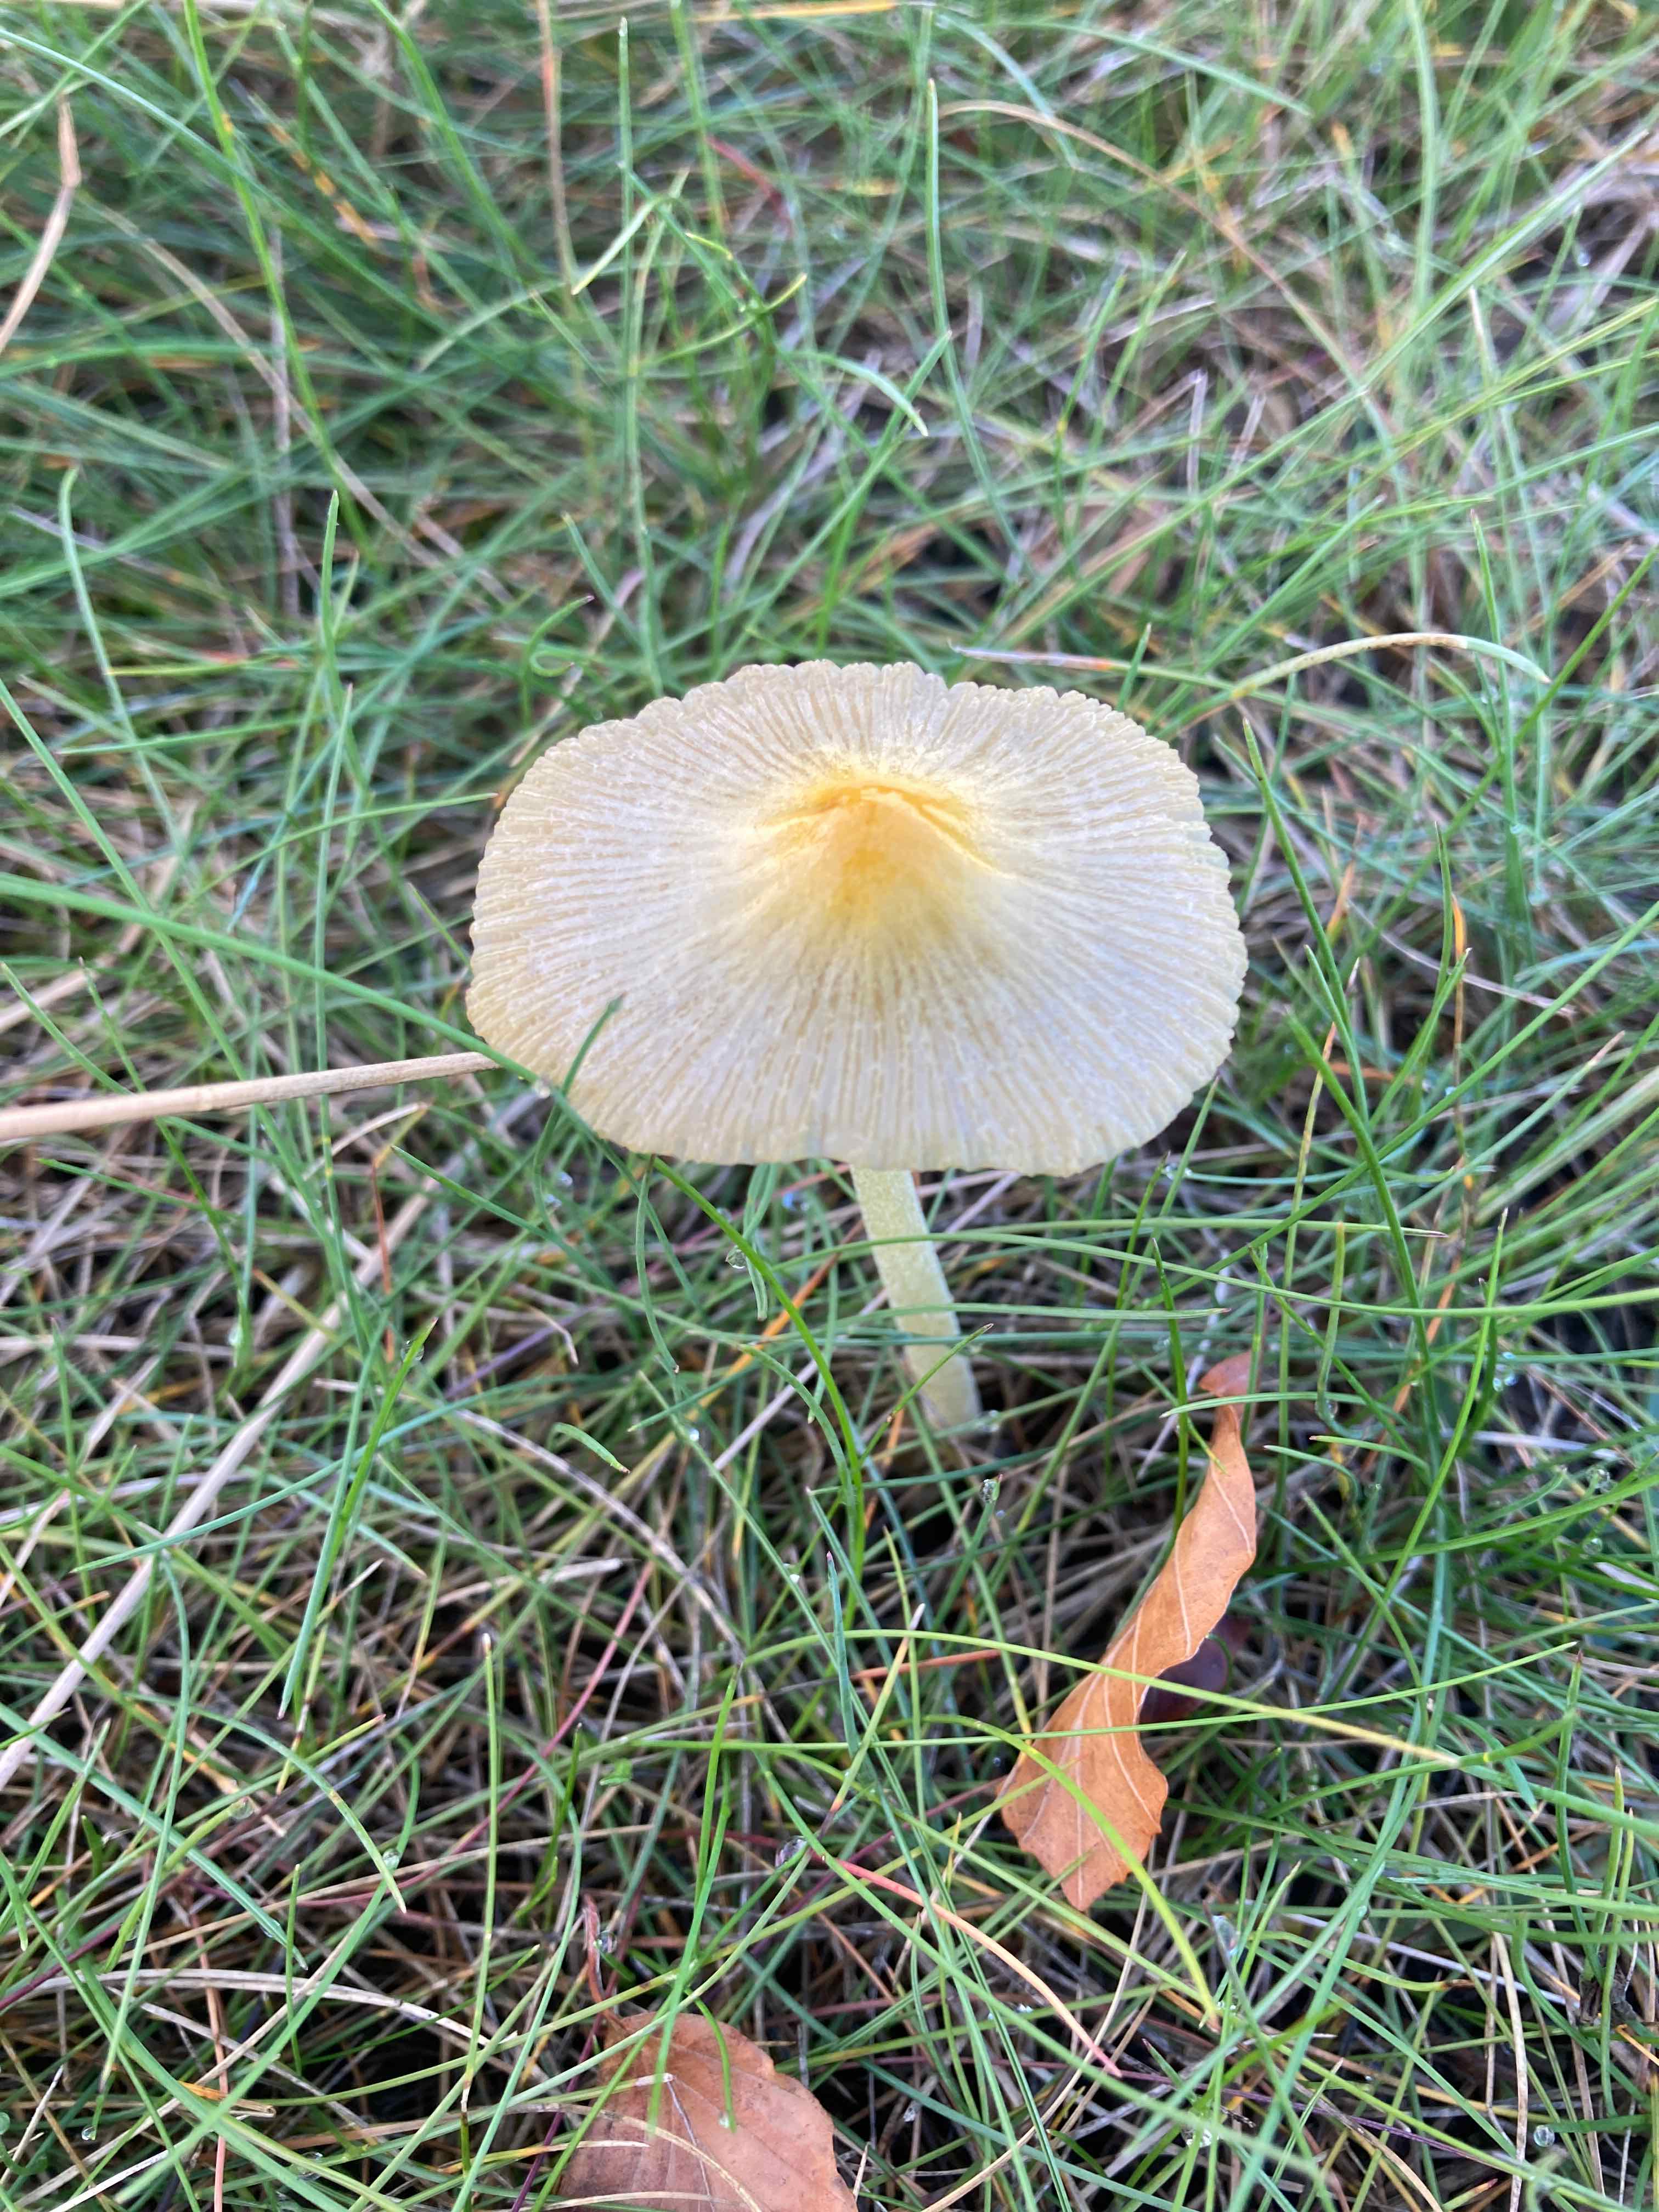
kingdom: Fungi
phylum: Basidiomycota
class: Agaricomycetes
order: Agaricales
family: Bolbitiaceae
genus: Bolbitius
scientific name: Bolbitius titubans
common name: almindelig gulhat
